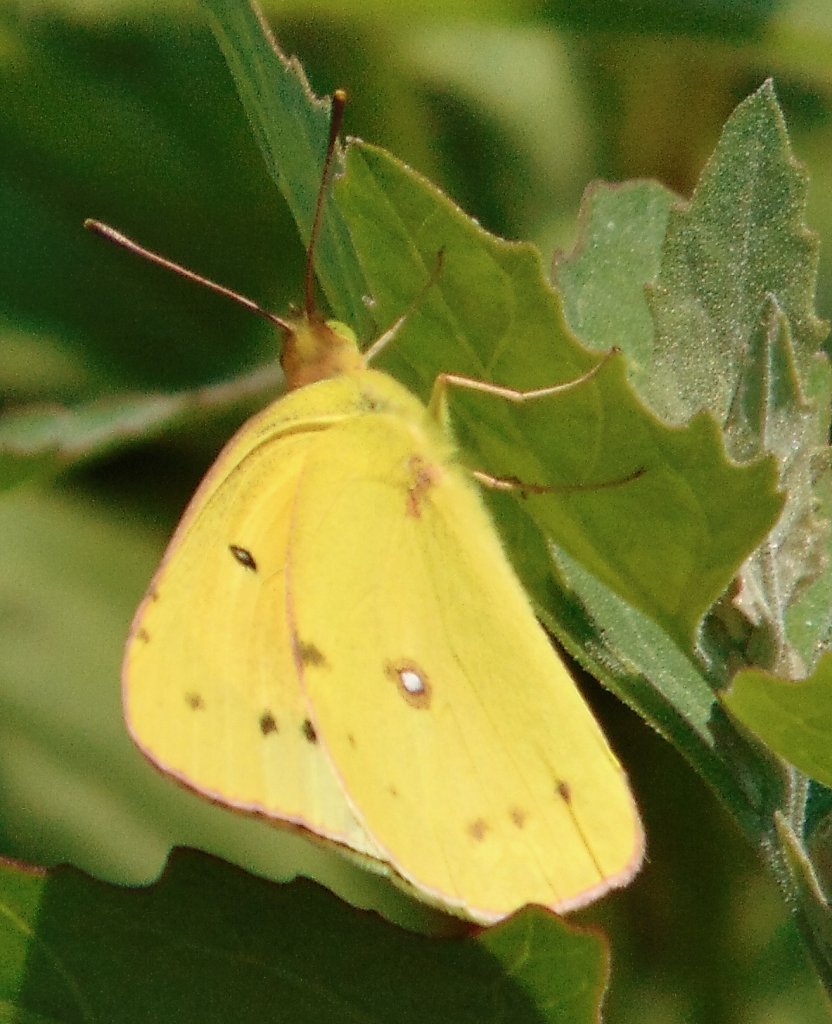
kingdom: Animalia
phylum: Arthropoda
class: Insecta
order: Lepidoptera
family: Pieridae
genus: Colias
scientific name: Colias eurytheme
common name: Orange Sulphur
